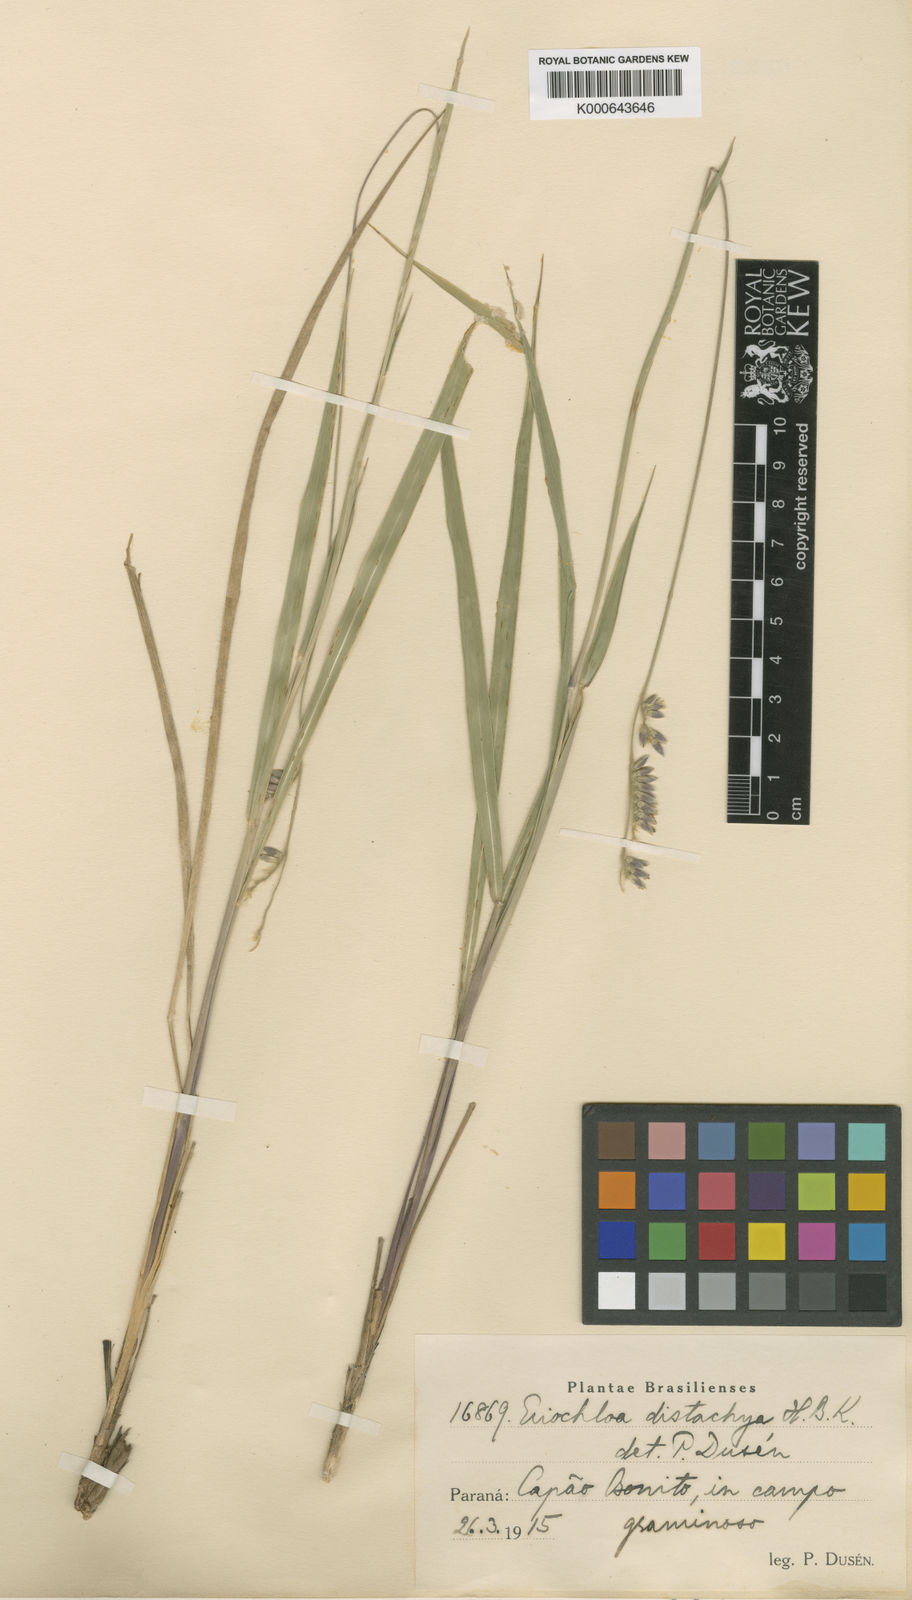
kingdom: Plantae
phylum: Tracheophyta
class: Liliopsida
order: Poales
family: Poaceae
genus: Eriochloa
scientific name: Eriochloa grandiflora
